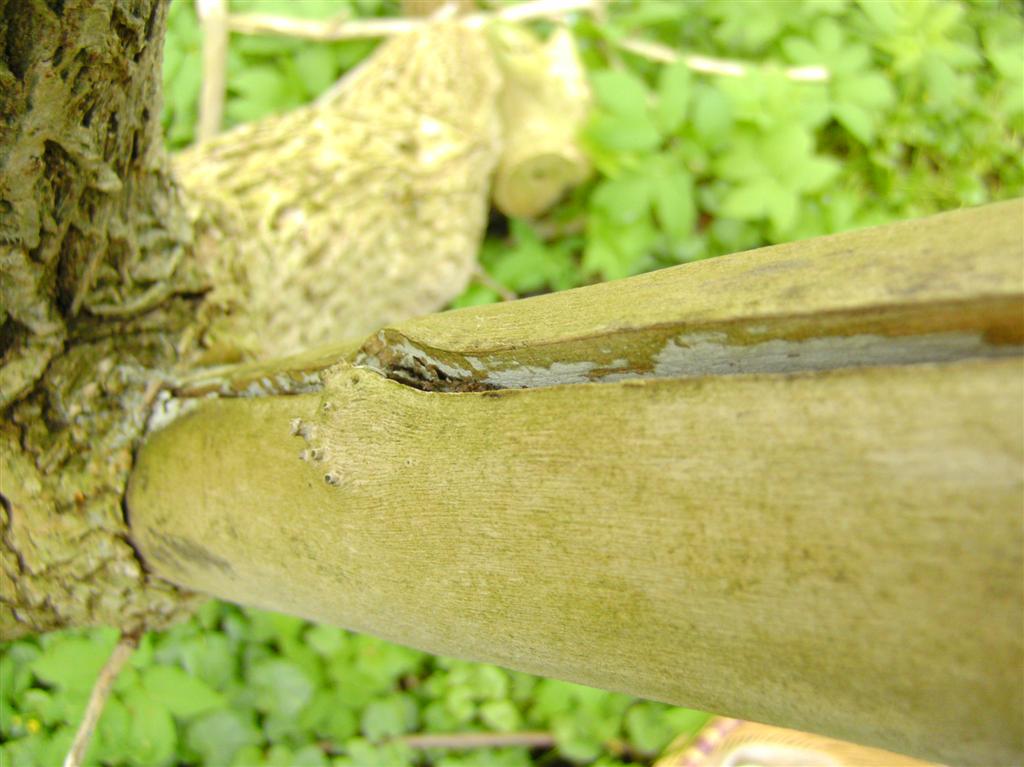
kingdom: Fungi
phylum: Basidiomycota
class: Agaricomycetes
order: Corticiales
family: Corticiaceae
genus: Lyomyces
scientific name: Lyomyces sambuci
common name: almindelig hyldehinde
